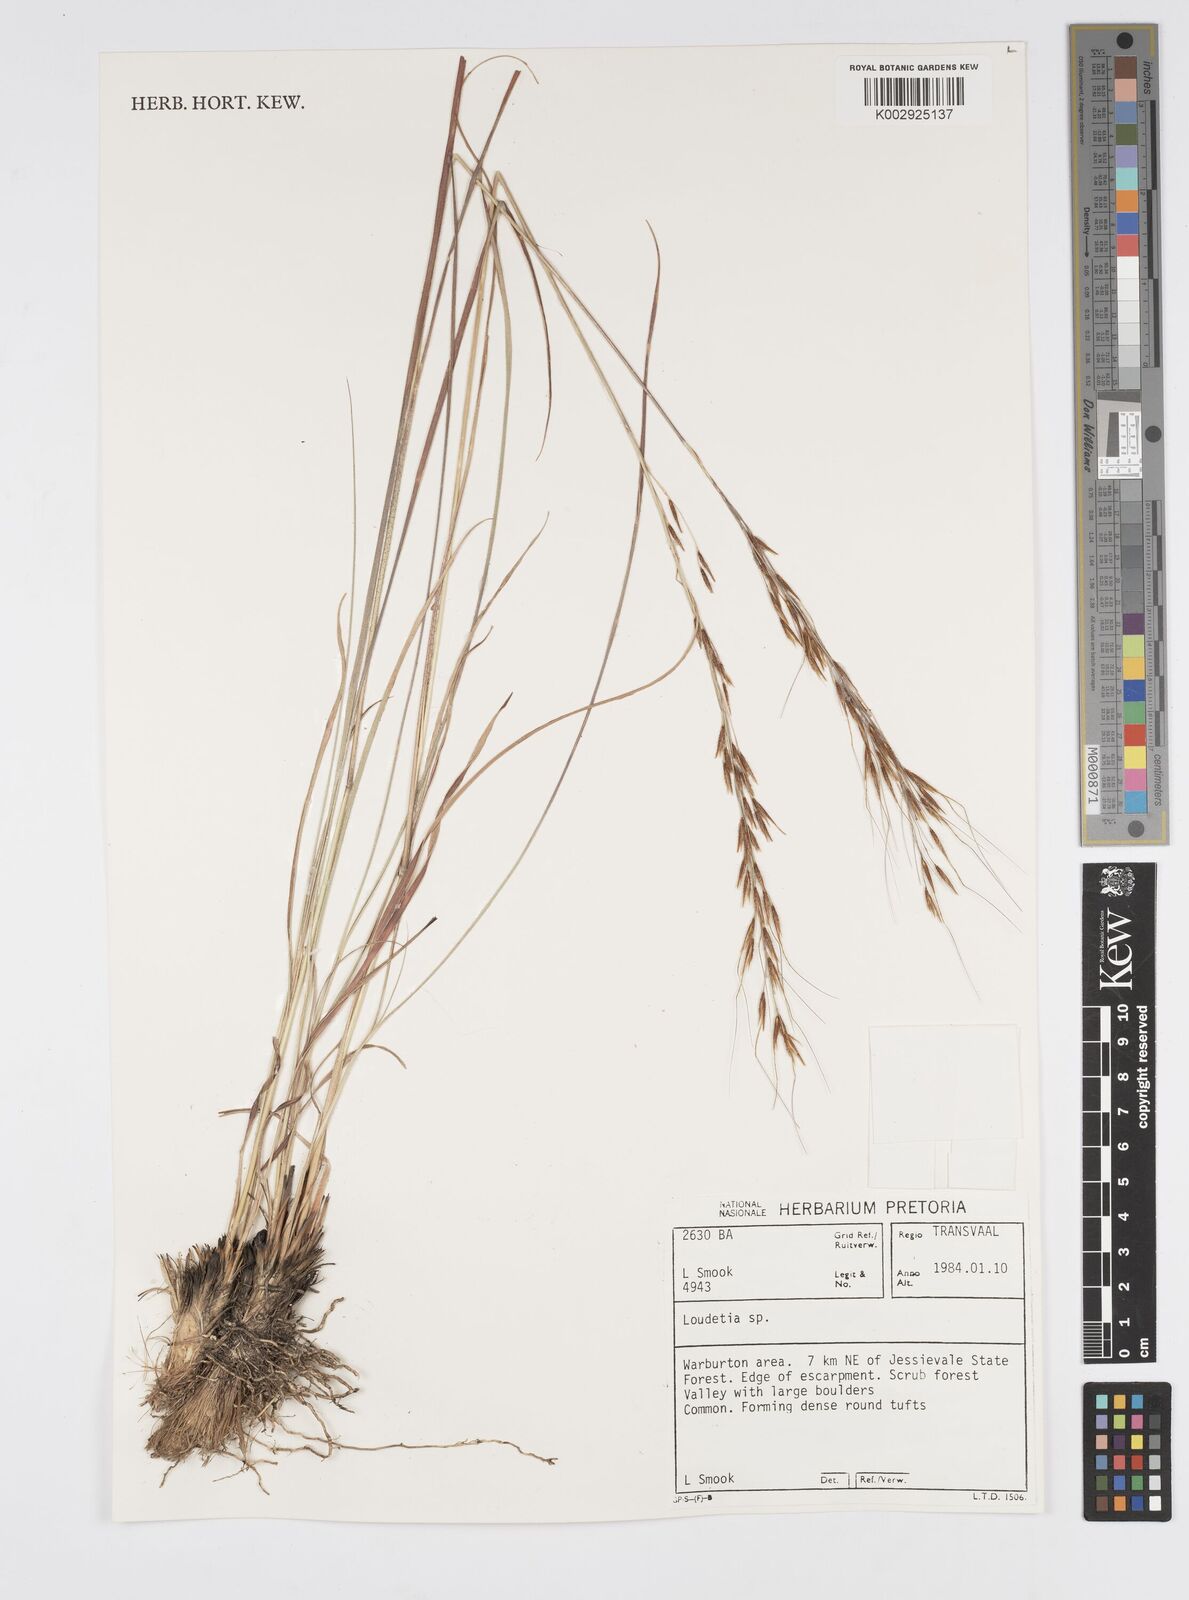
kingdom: Plantae
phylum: Tracheophyta
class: Liliopsida
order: Poales
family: Poaceae
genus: Loudetia
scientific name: Loudetia simplex
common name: Common russet grass
